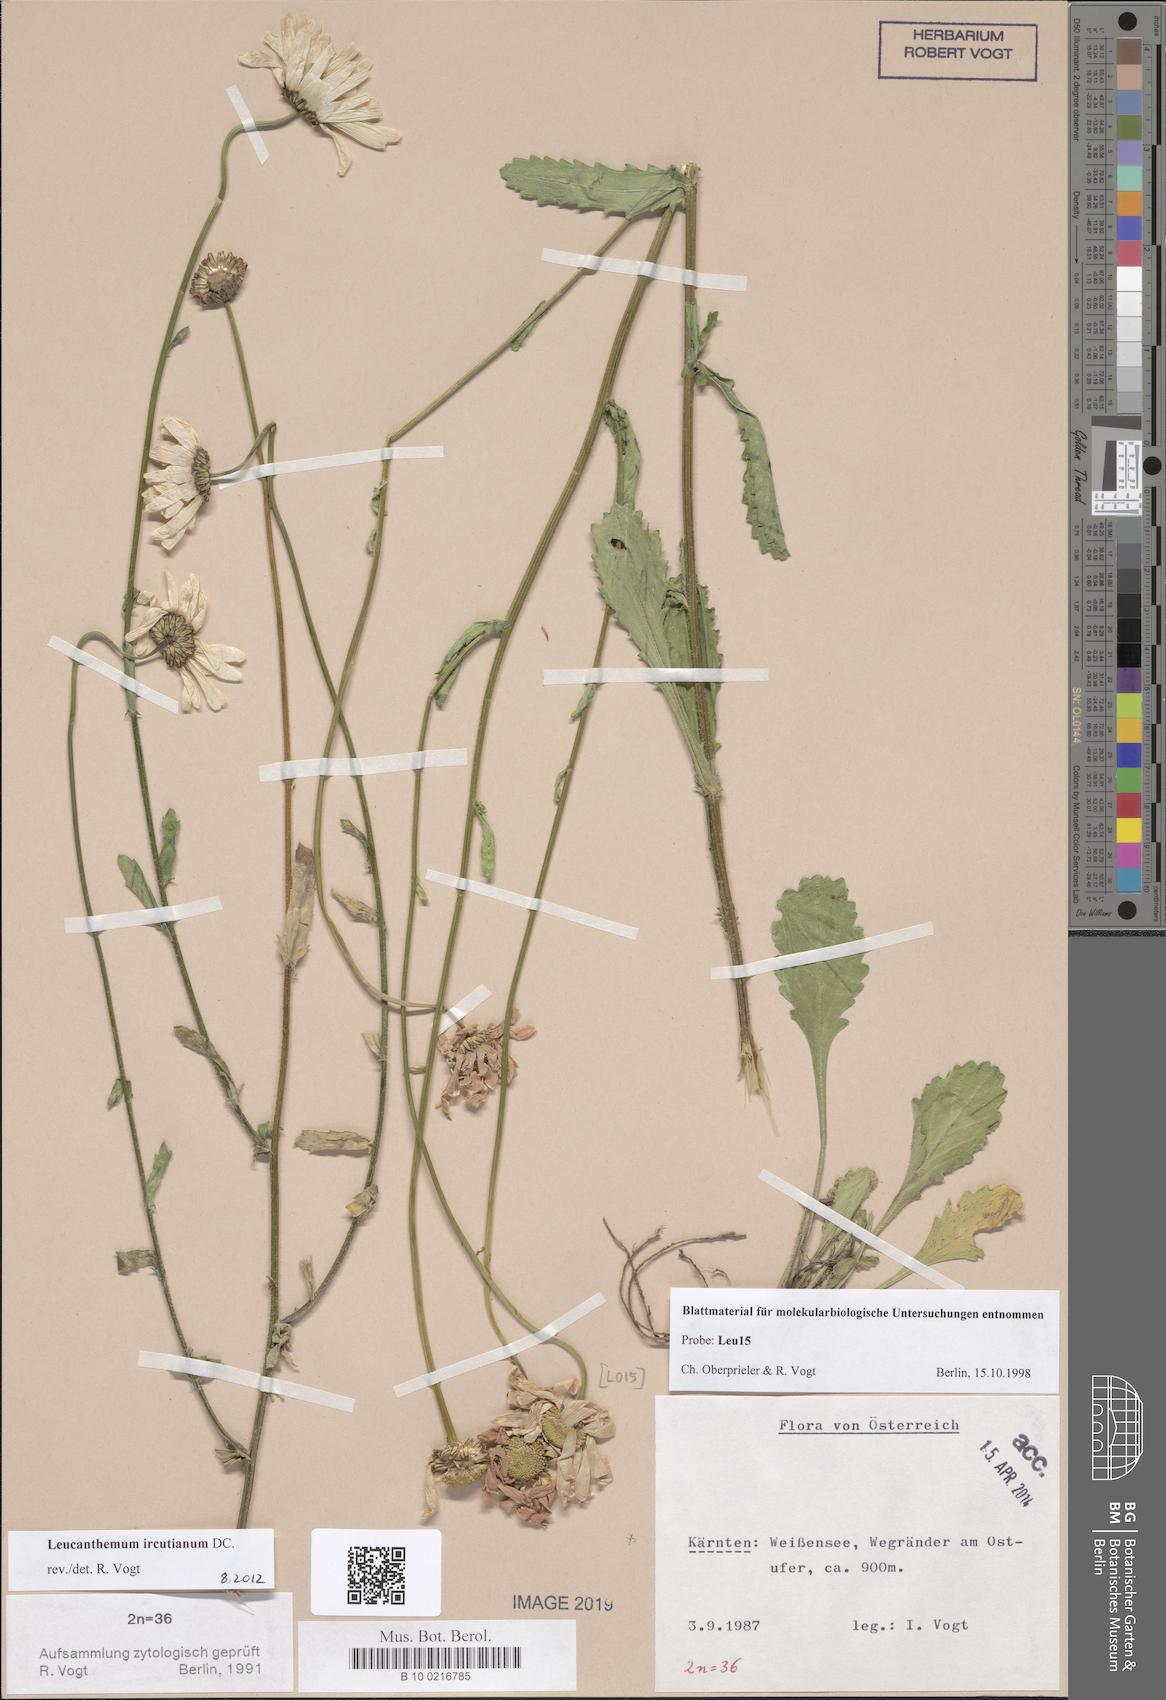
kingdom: Plantae
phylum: Tracheophyta
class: Magnoliopsida
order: Asterales
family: Asteraceae
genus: Leucanthemum
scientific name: Leucanthemum ircutianum
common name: Daisy
